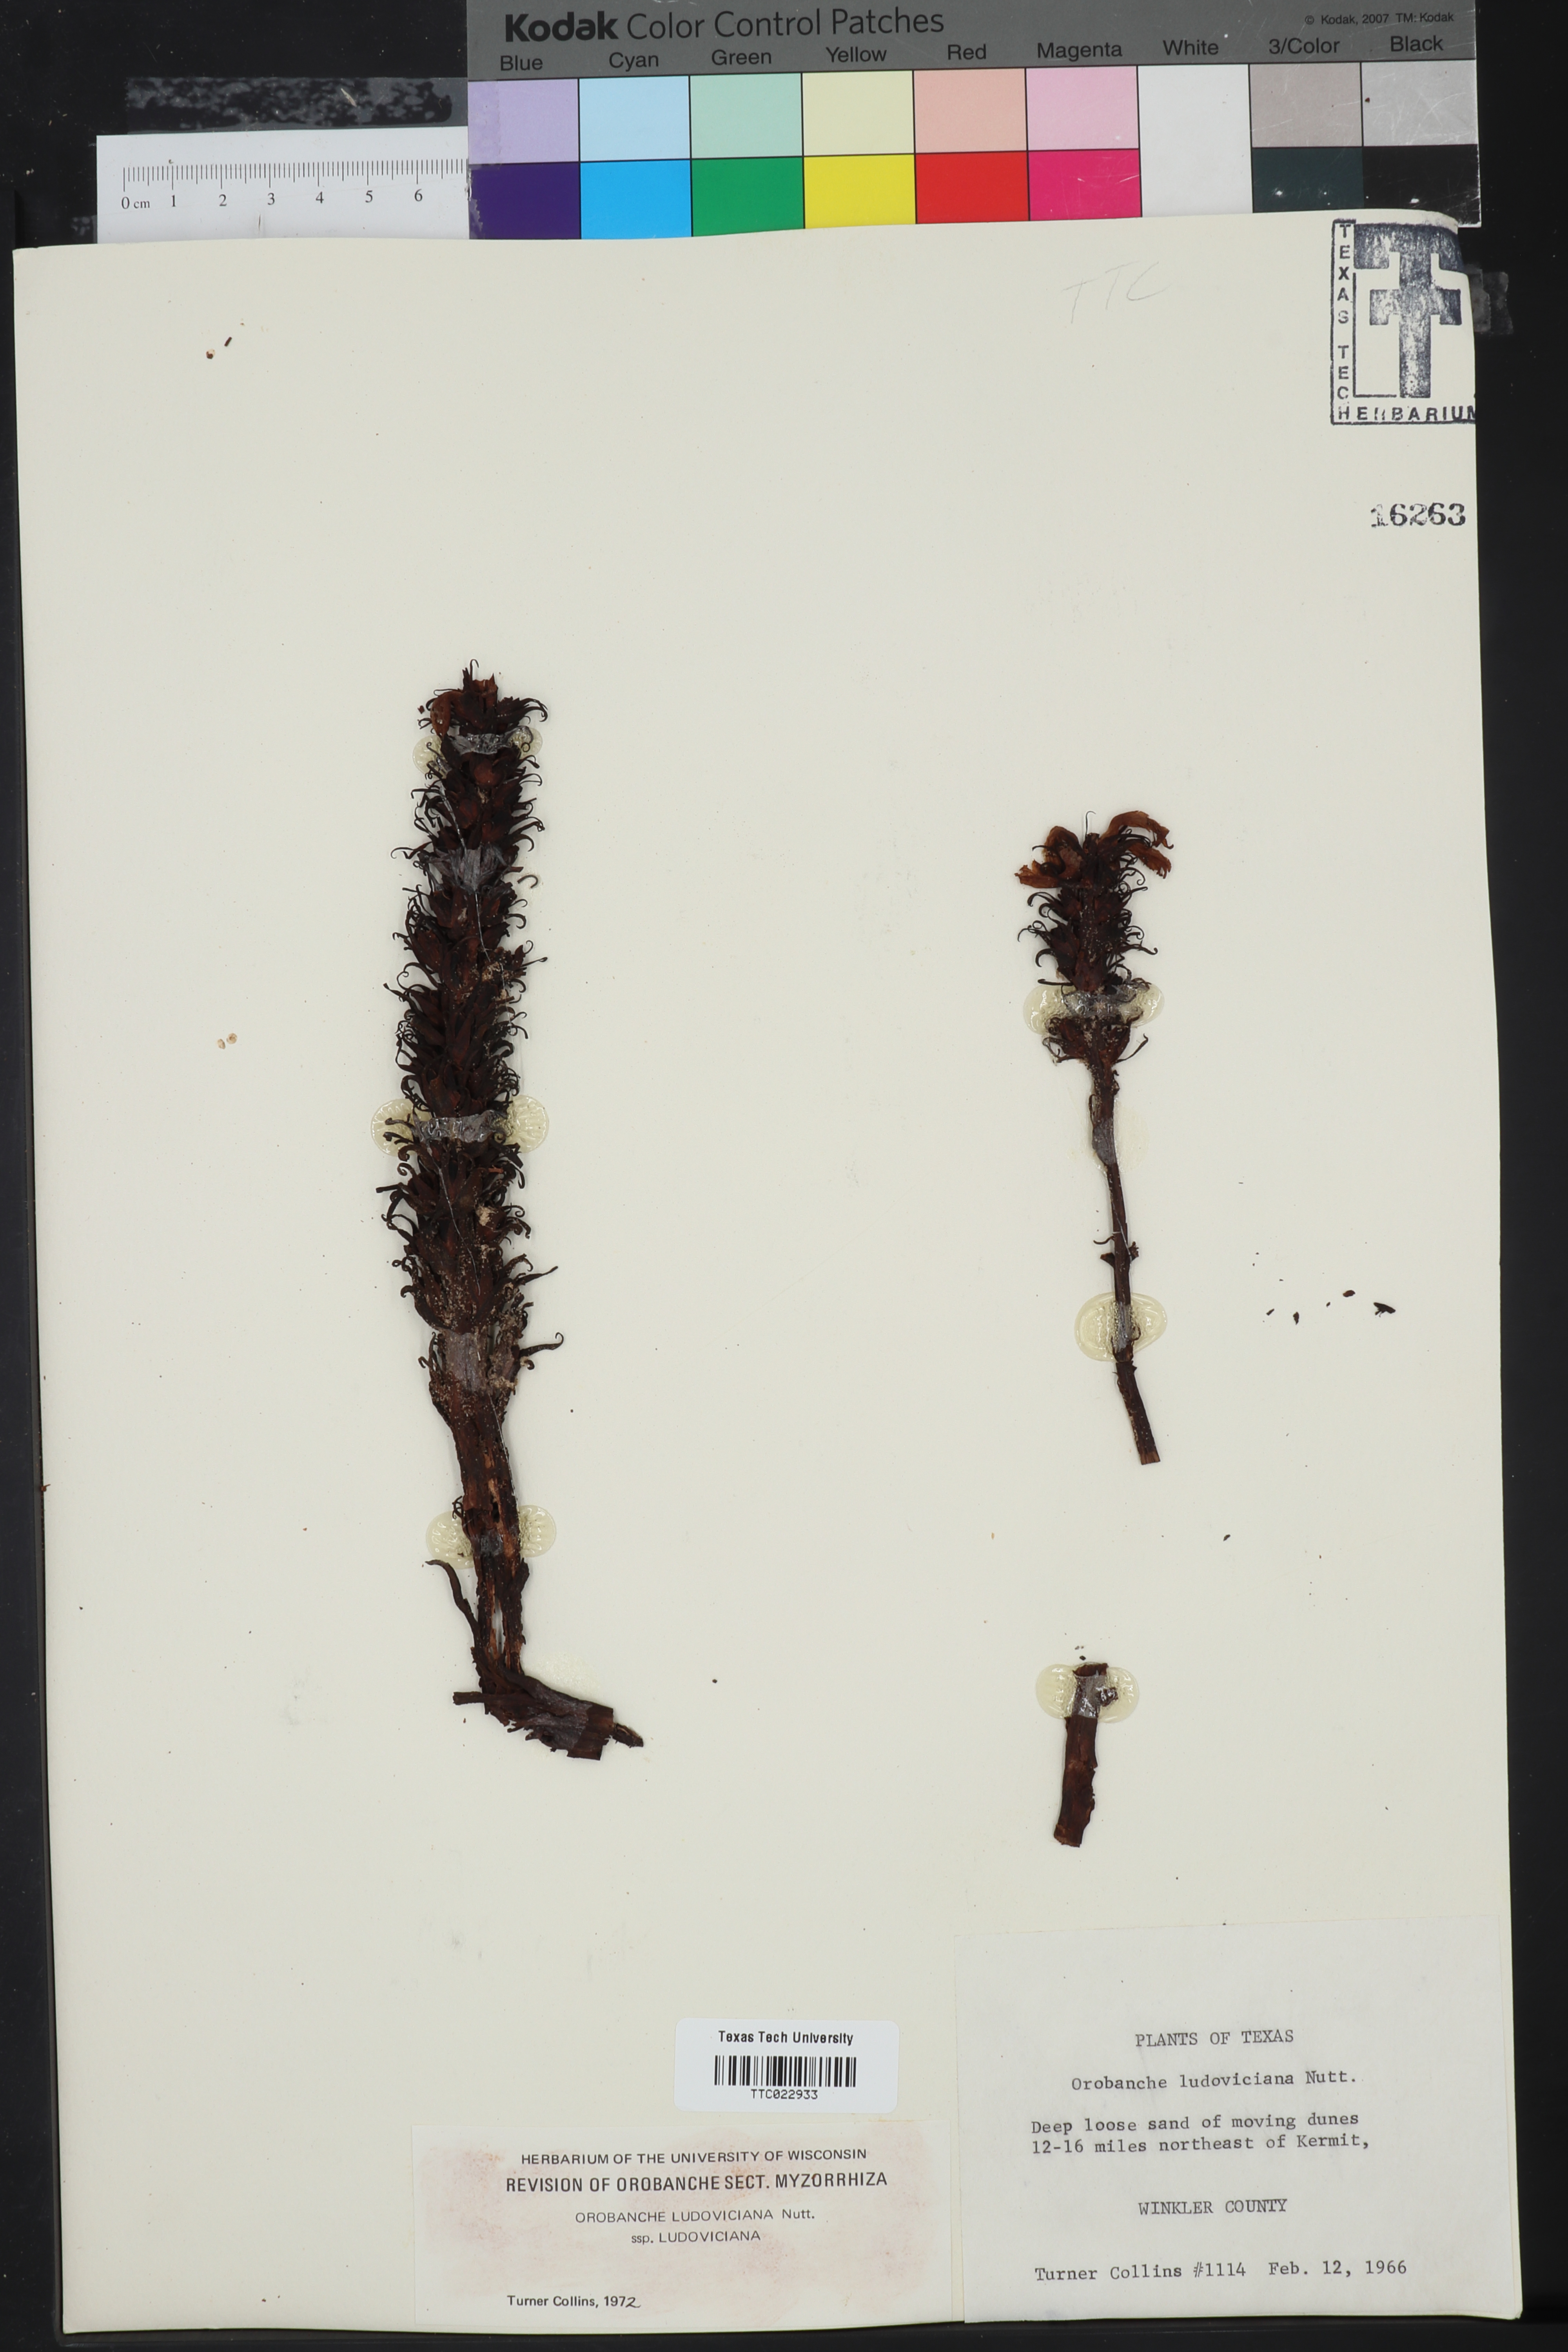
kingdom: Plantae
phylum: Tracheophyta
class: Magnoliopsida
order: Fagales
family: Fagaceae
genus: Quercus
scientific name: Quercus john-tuckeri
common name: Tucker's oak
